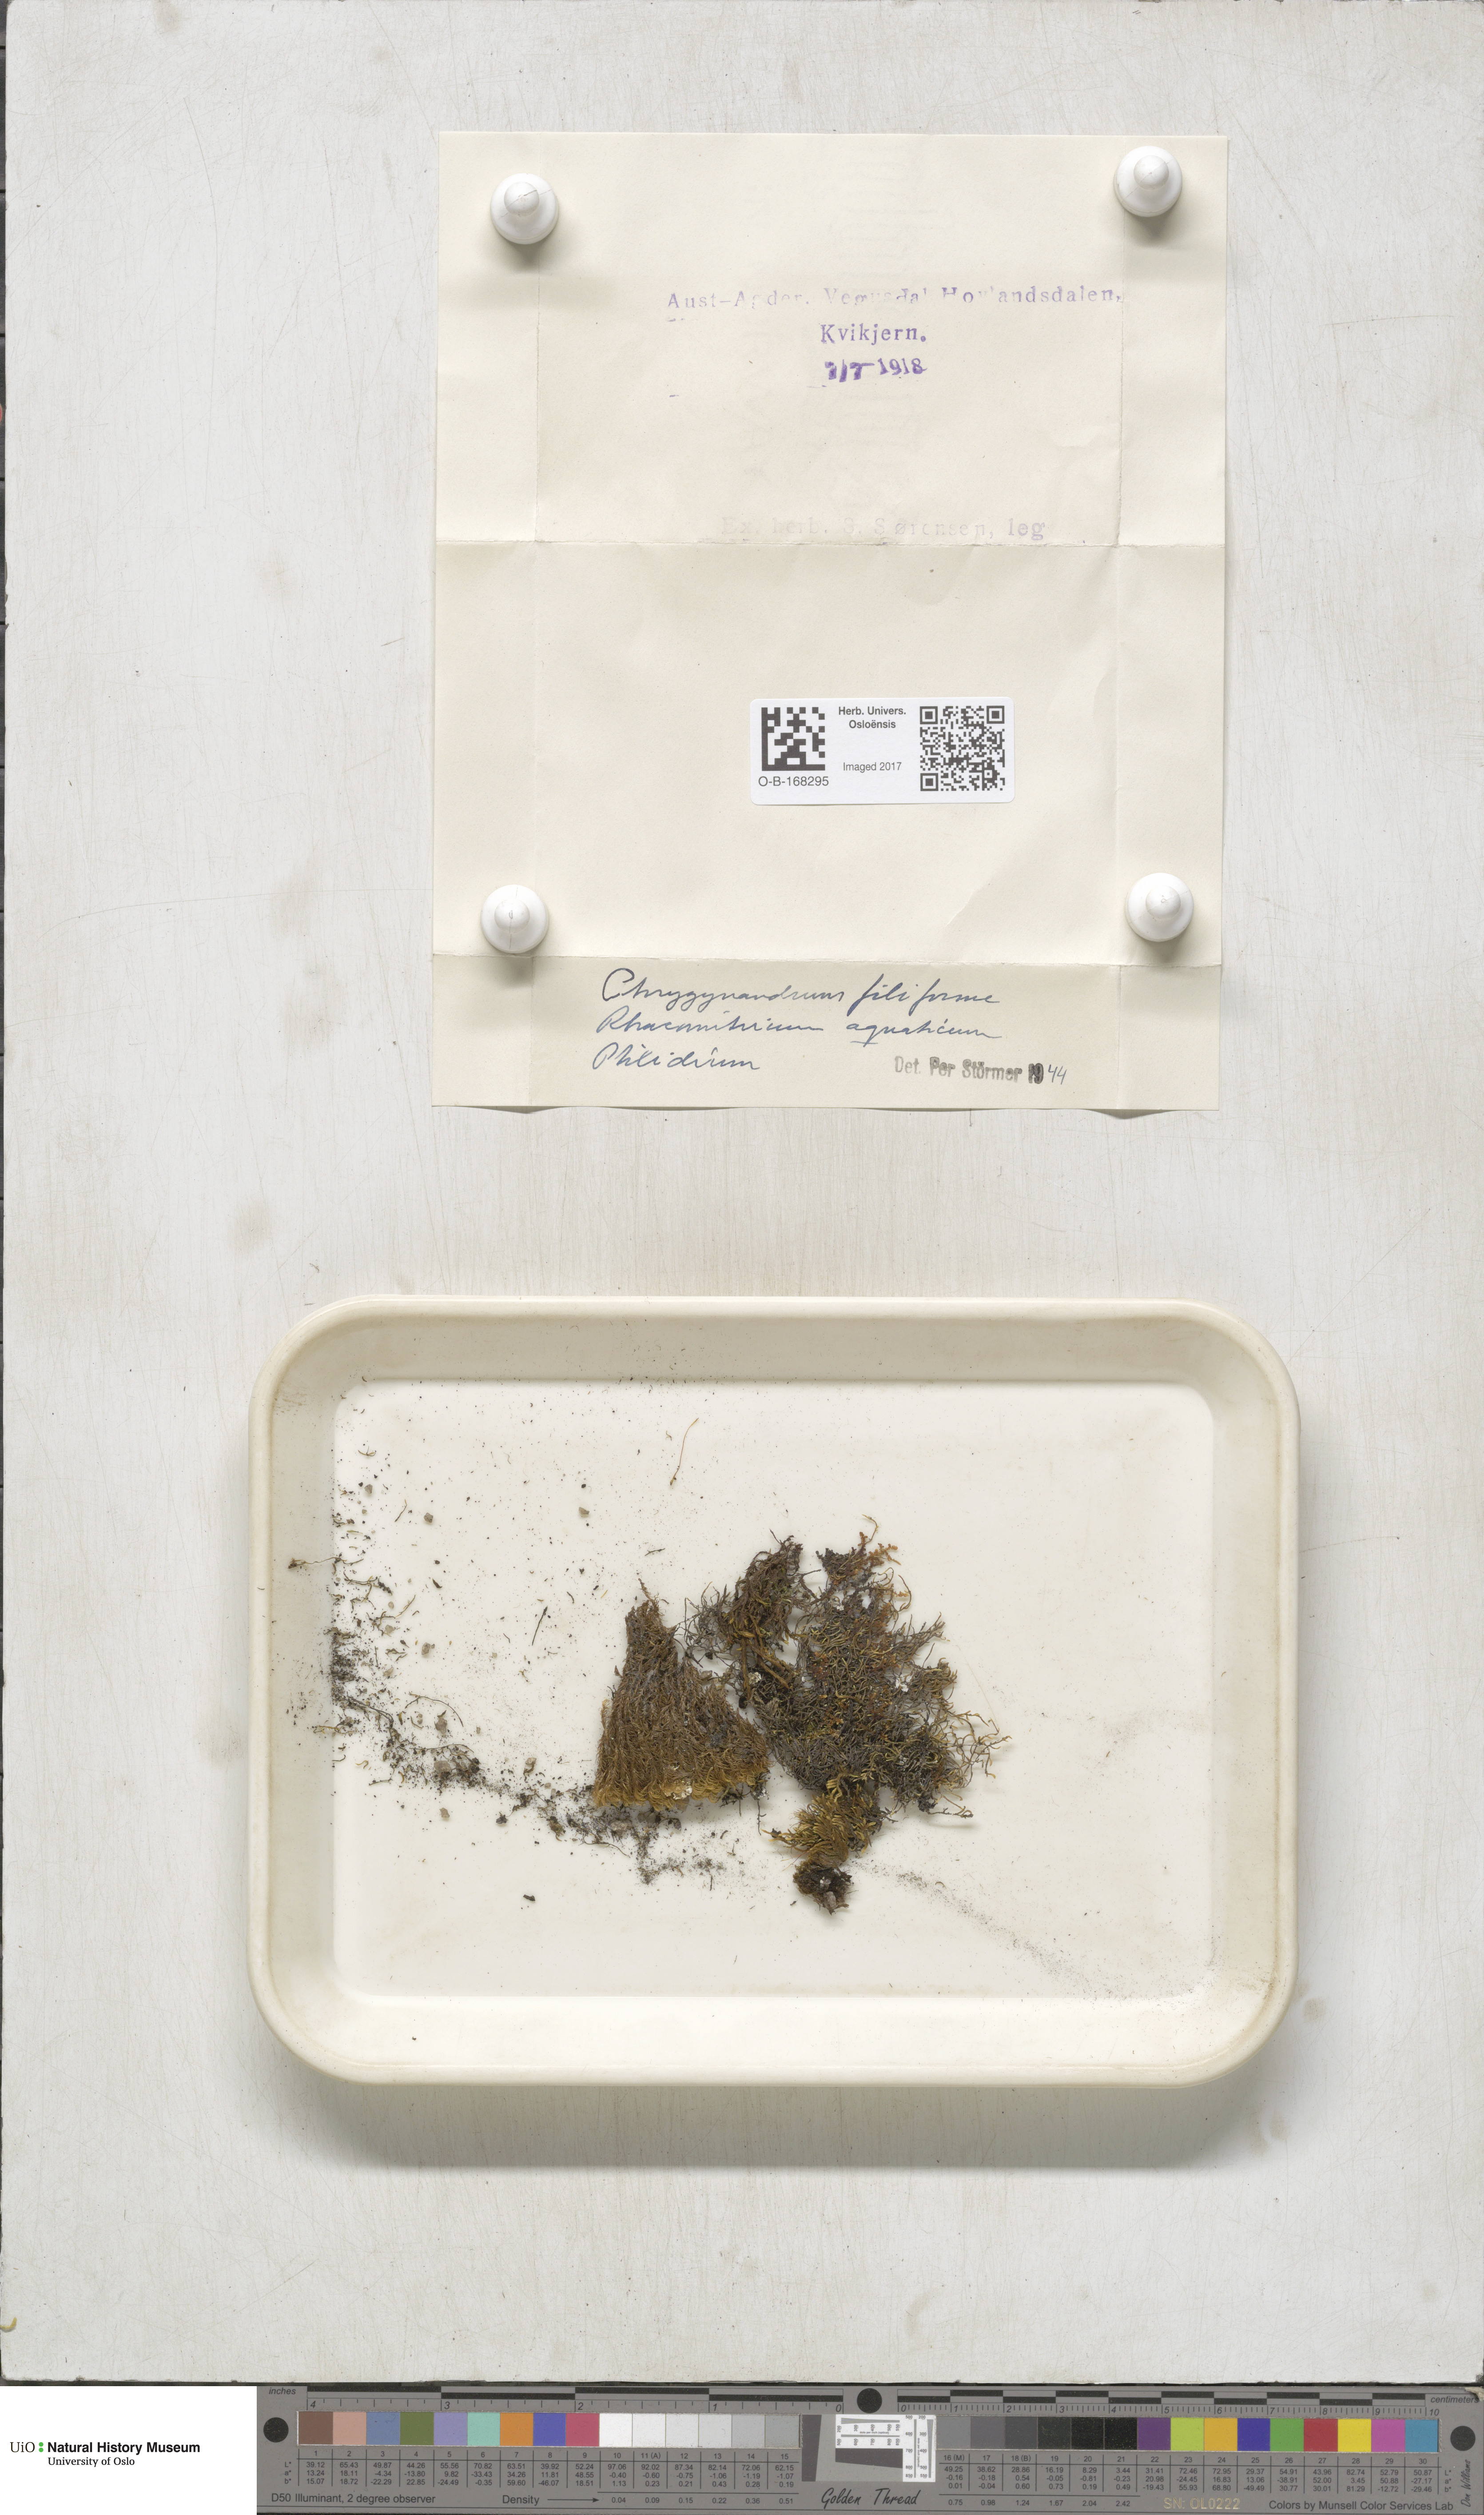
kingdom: Plantae
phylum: Bryophyta
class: Bryopsida
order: Hypnales
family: Pterigynandraceae
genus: Pterigynandrum
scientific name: Pterigynandrum filiforme
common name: Capillary wing moss
